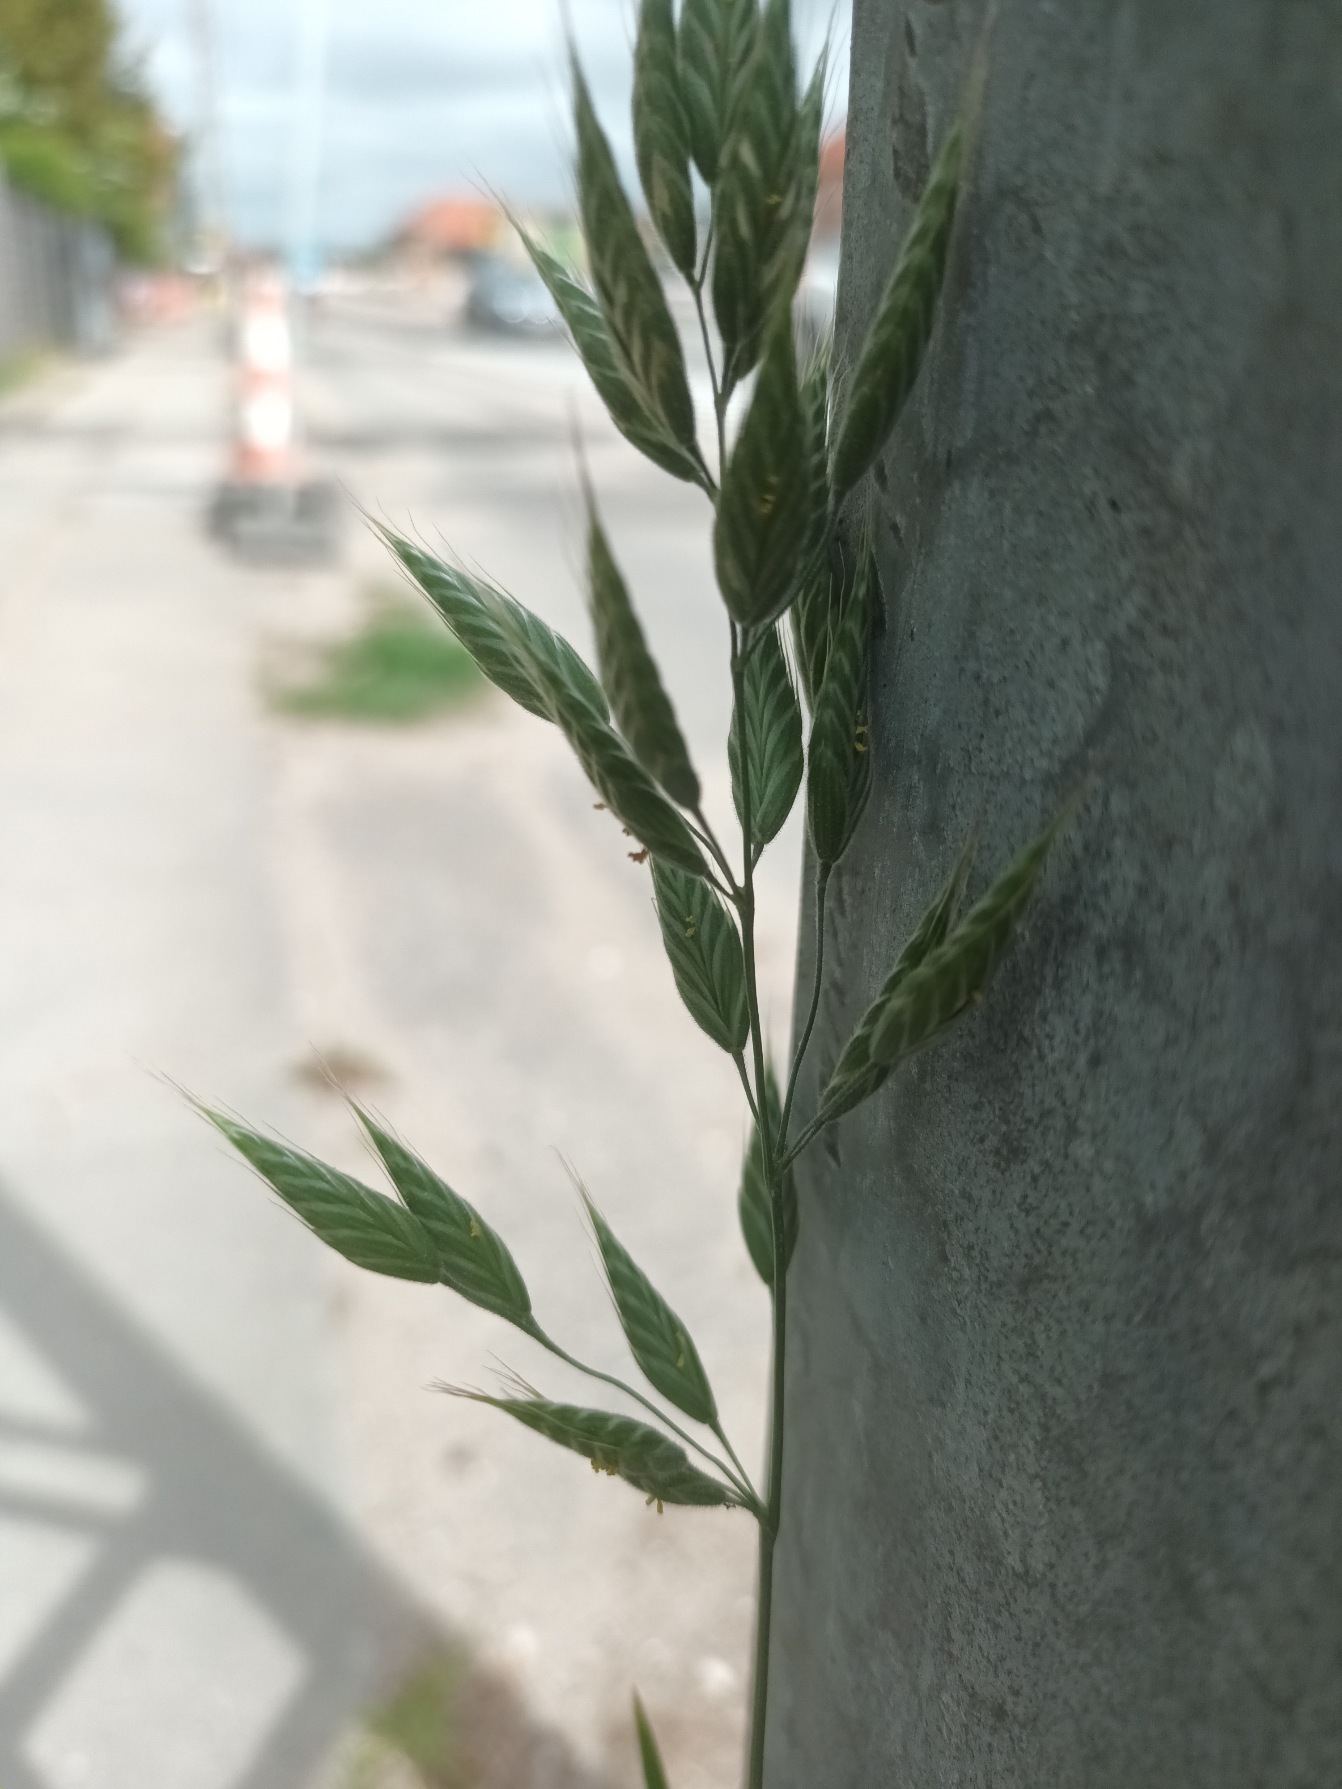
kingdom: Plantae
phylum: Tracheophyta
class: Liliopsida
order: Poales
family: Poaceae
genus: Bromus
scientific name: Bromus hordeaceus
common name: Blød hejre
